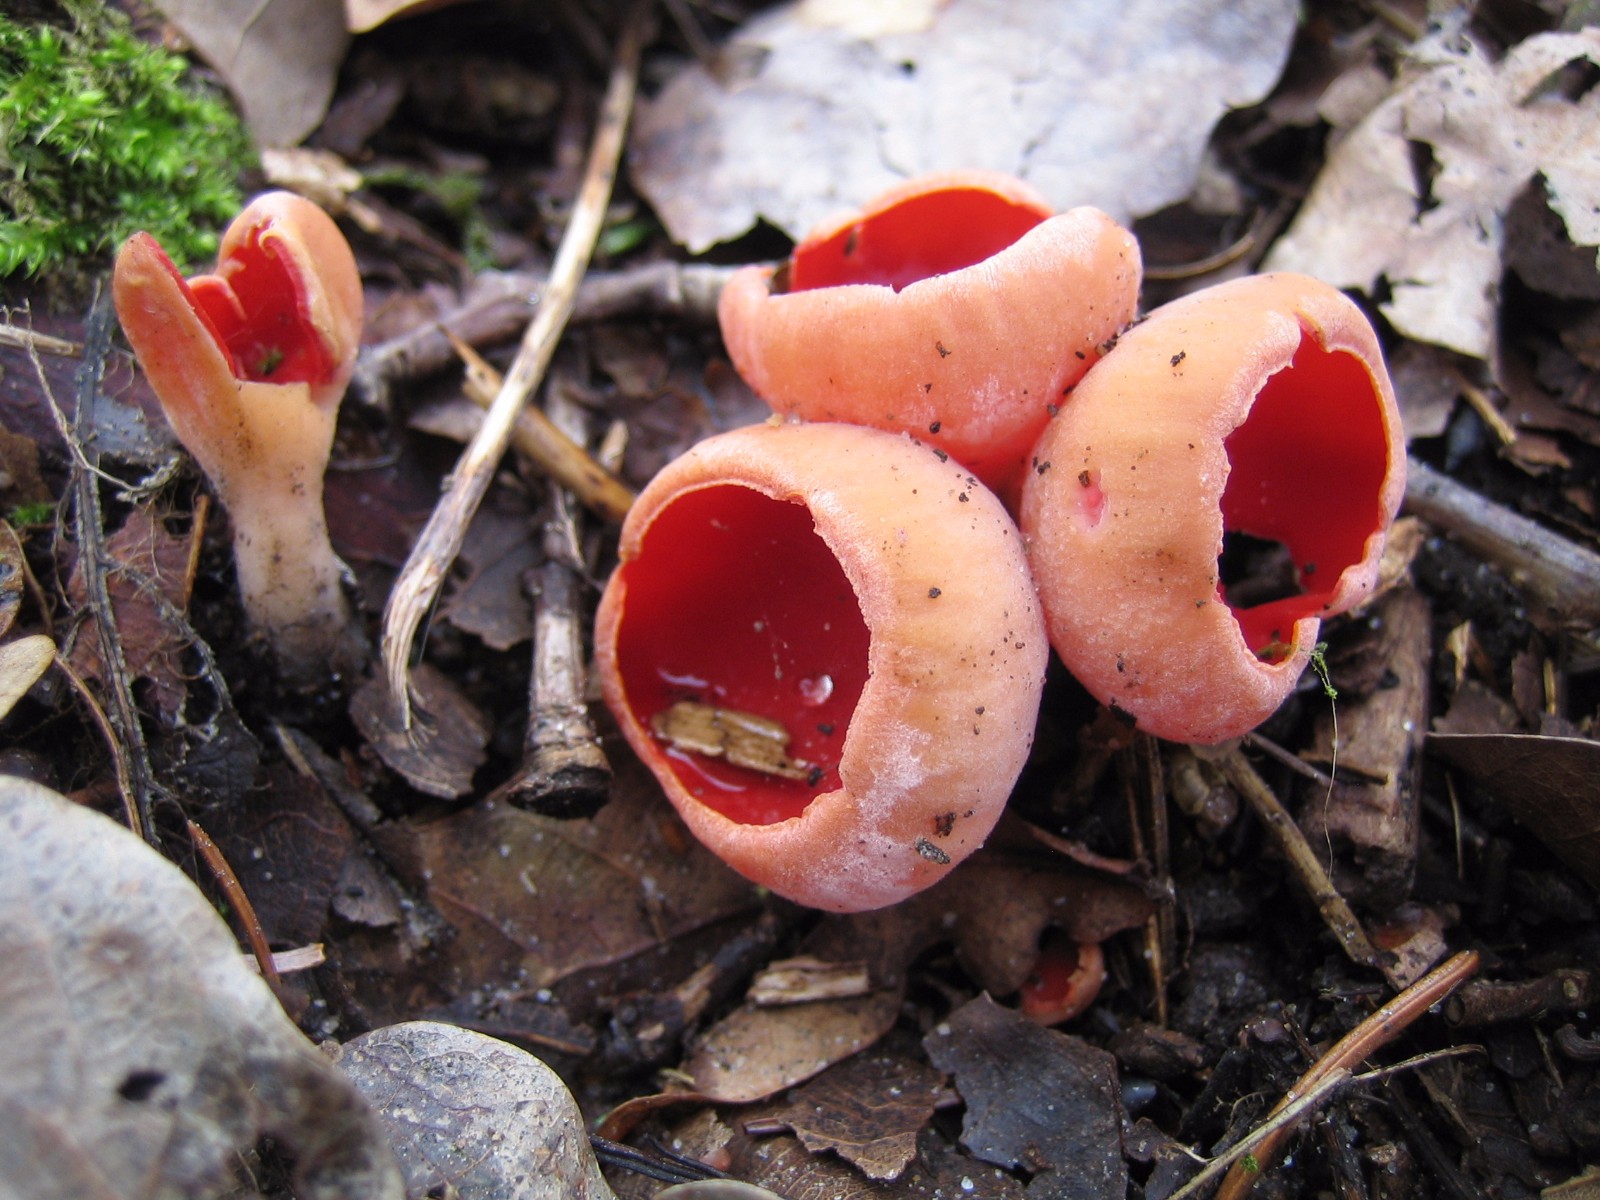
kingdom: Fungi
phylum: Ascomycota
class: Pezizomycetes
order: Pezizales
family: Sarcoscyphaceae
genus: Sarcoscypha
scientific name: Sarcoscypha austriaca
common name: krølhåret pragtbæger
